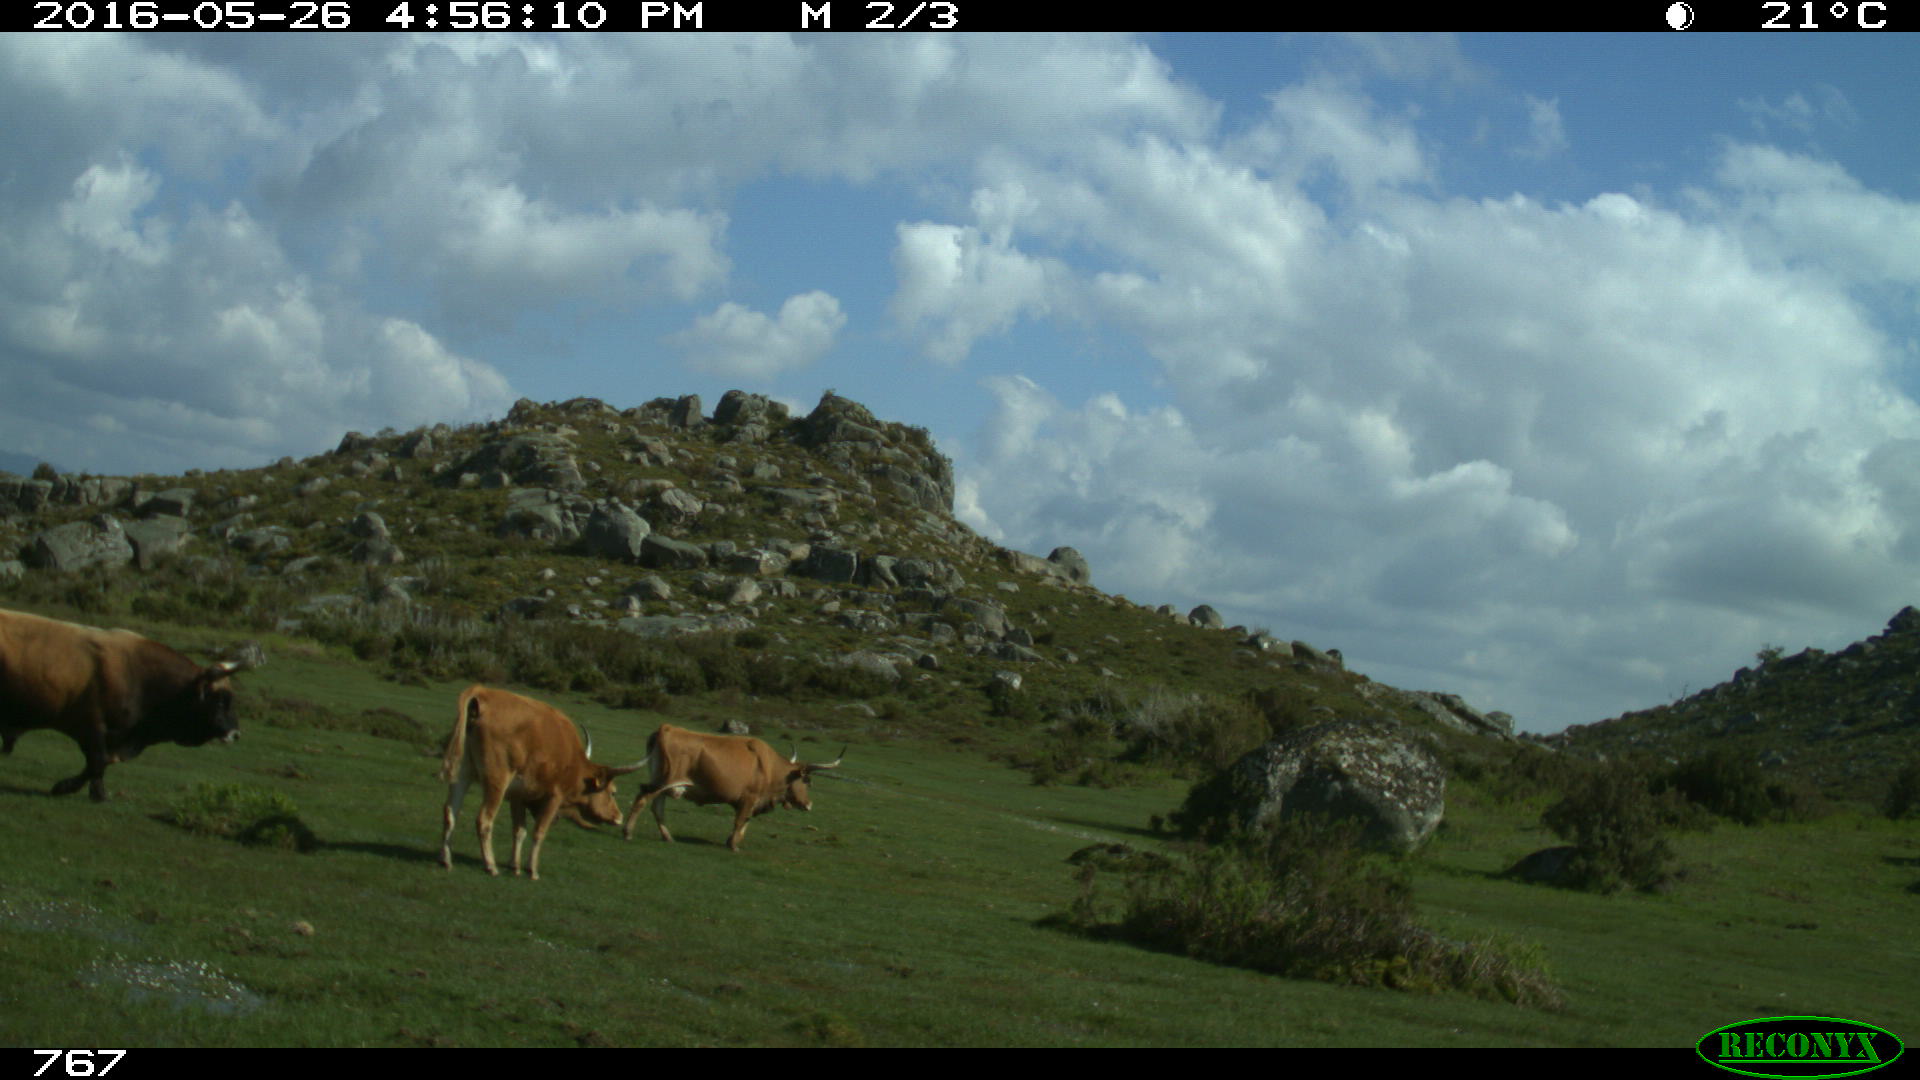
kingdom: Animalia
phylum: Chordata
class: Mammalia
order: Artiodactyla
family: Bovidae
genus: Bos
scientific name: Bos taurus
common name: Domesticated cattle
